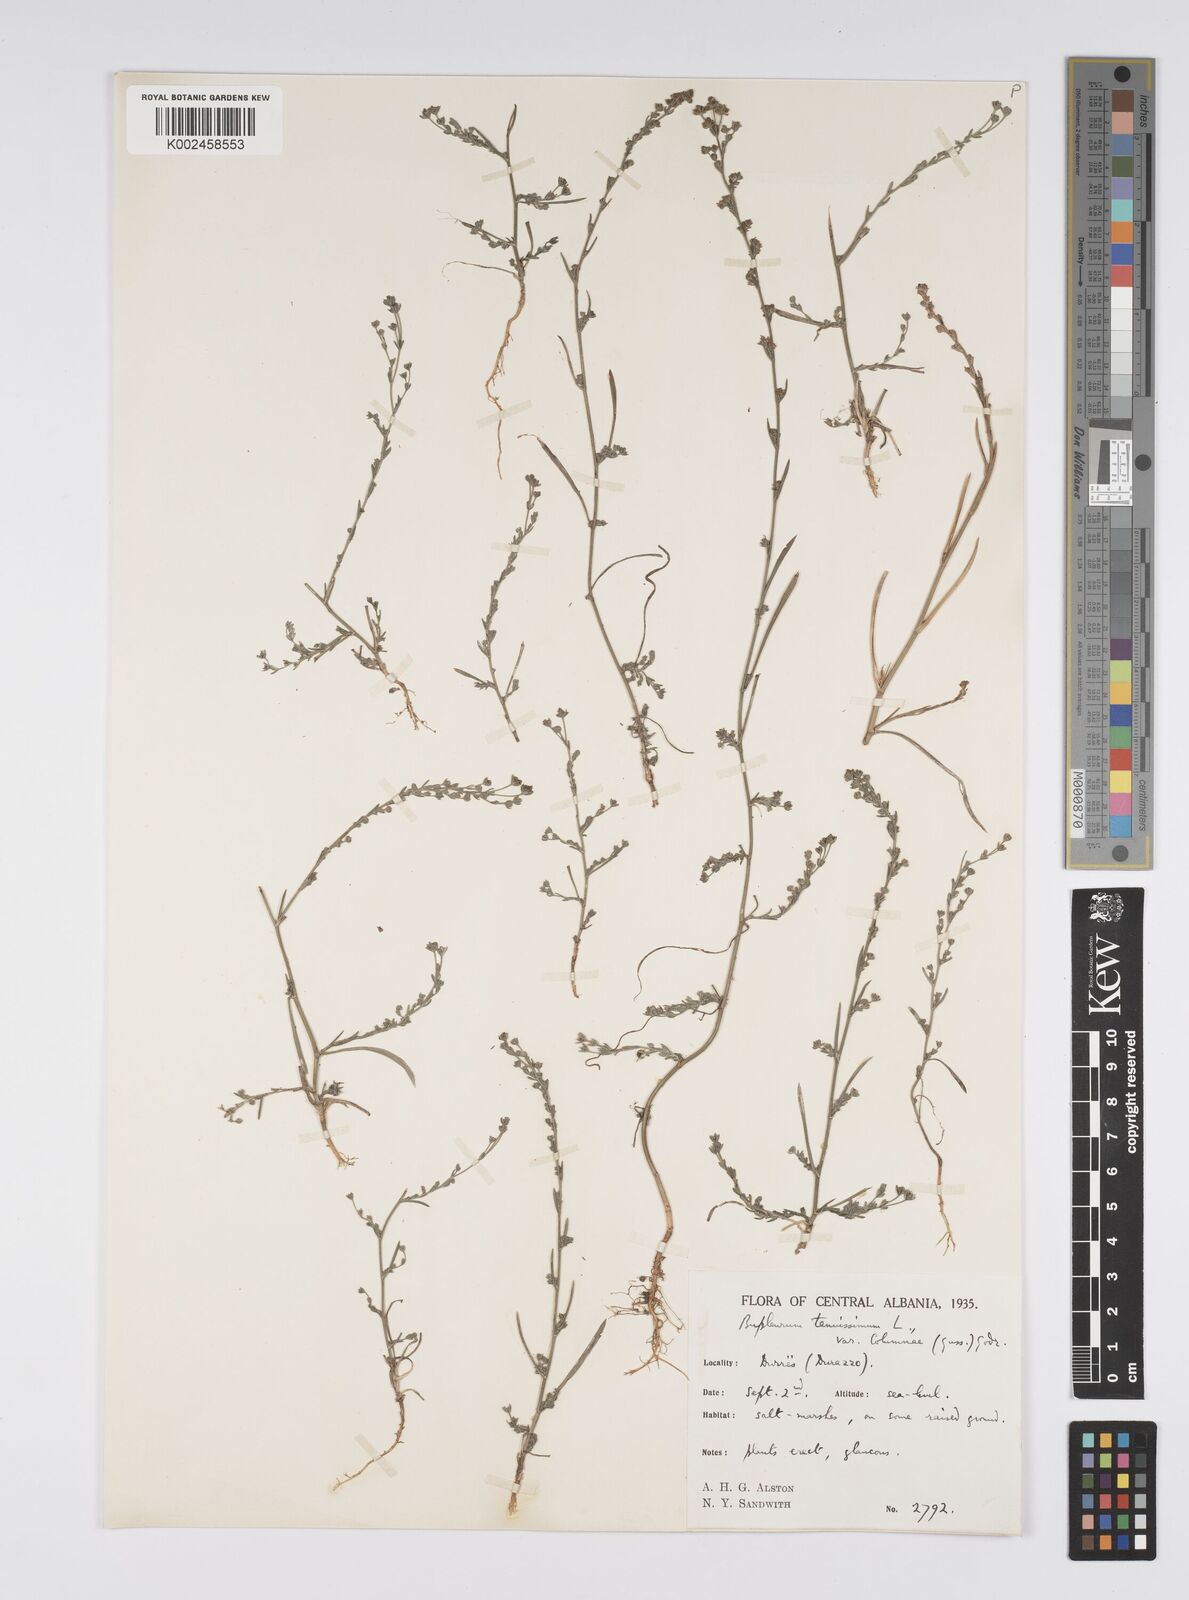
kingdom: Plantae
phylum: Tracheophyta
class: Magnoliopsida
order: Apiales
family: Apiaceae
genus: Bupleurum
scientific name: Bupleurum tenuissimum
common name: Slender hare's-ear
